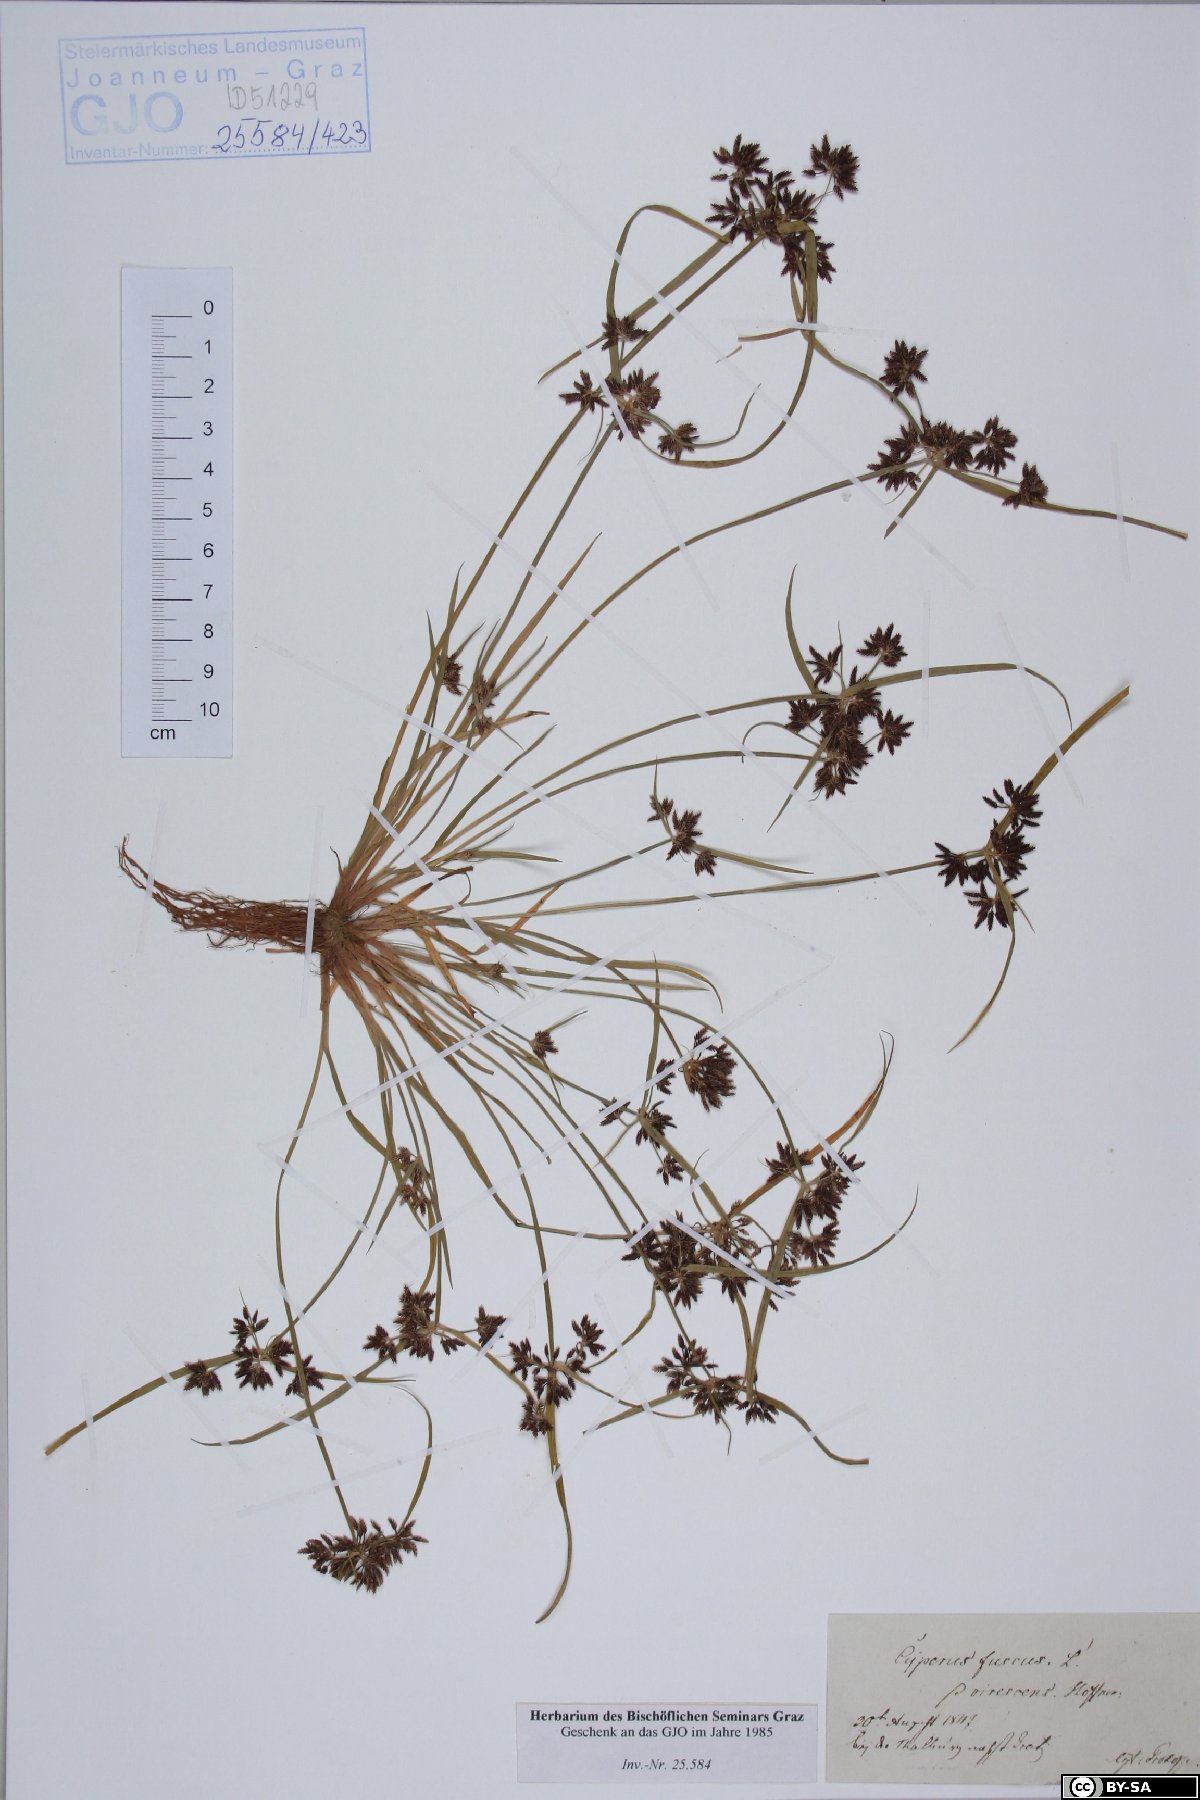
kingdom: Plantae
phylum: Tracheophyta
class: Liliopsida
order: Poales
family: Cyperaceae
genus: Cyperus
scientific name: Cyperus fuscus
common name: Brown galingale
